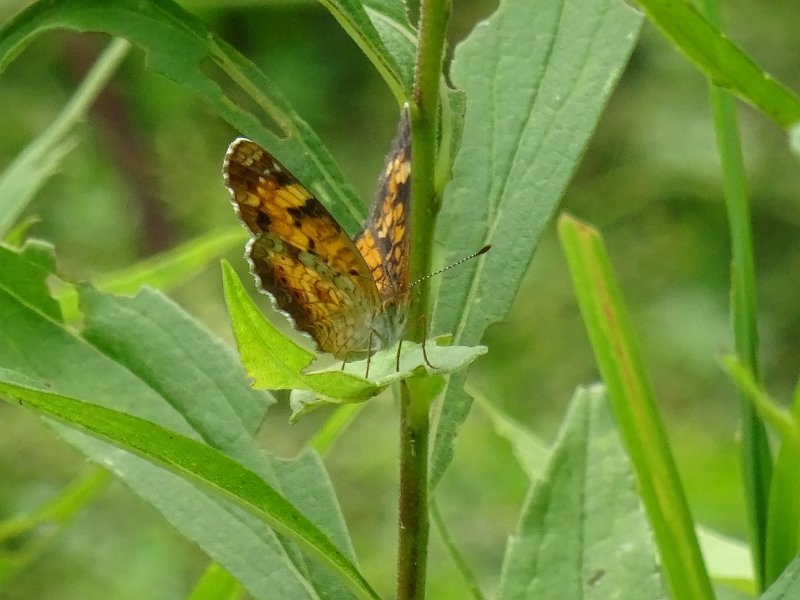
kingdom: Animalia
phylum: Arthropoda
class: Insecta
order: Lepidoptera
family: Nymphalidae
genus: Phyciodes
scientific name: Phyciodes tharos
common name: Pearl Crescent
